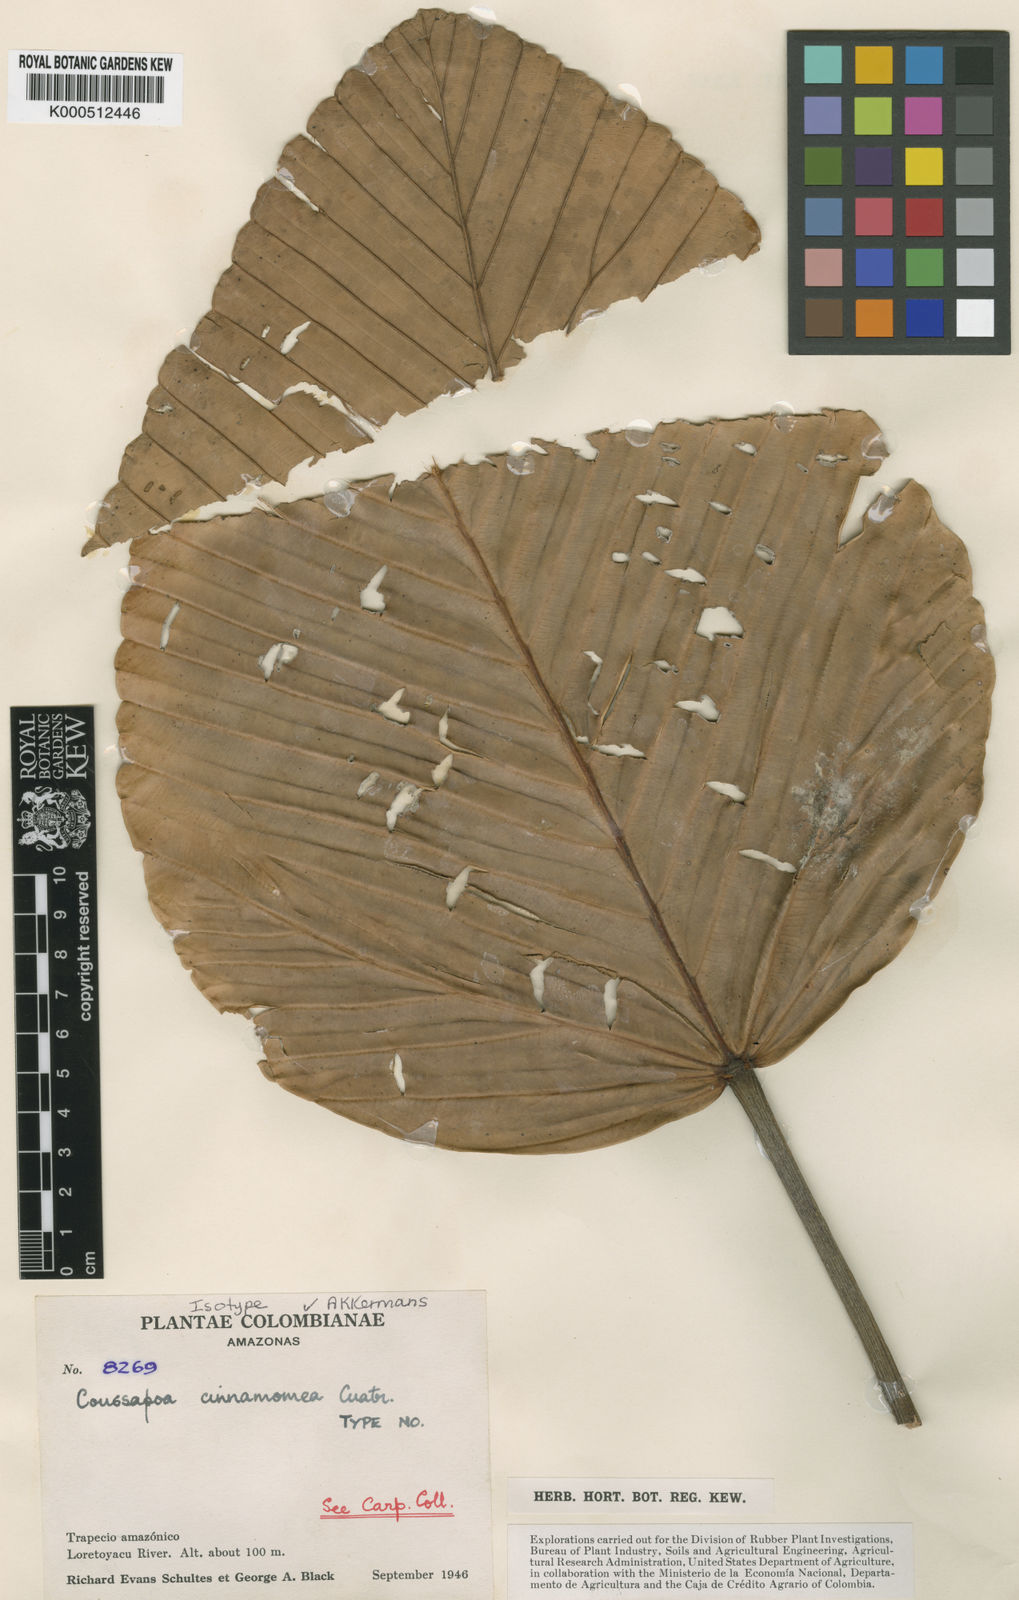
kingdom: Plantae
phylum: Tracheophyta
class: Magnoliopsida
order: Rosales
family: Urticaceae
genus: Coussapoa
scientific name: Coussapoa cinnamomea
